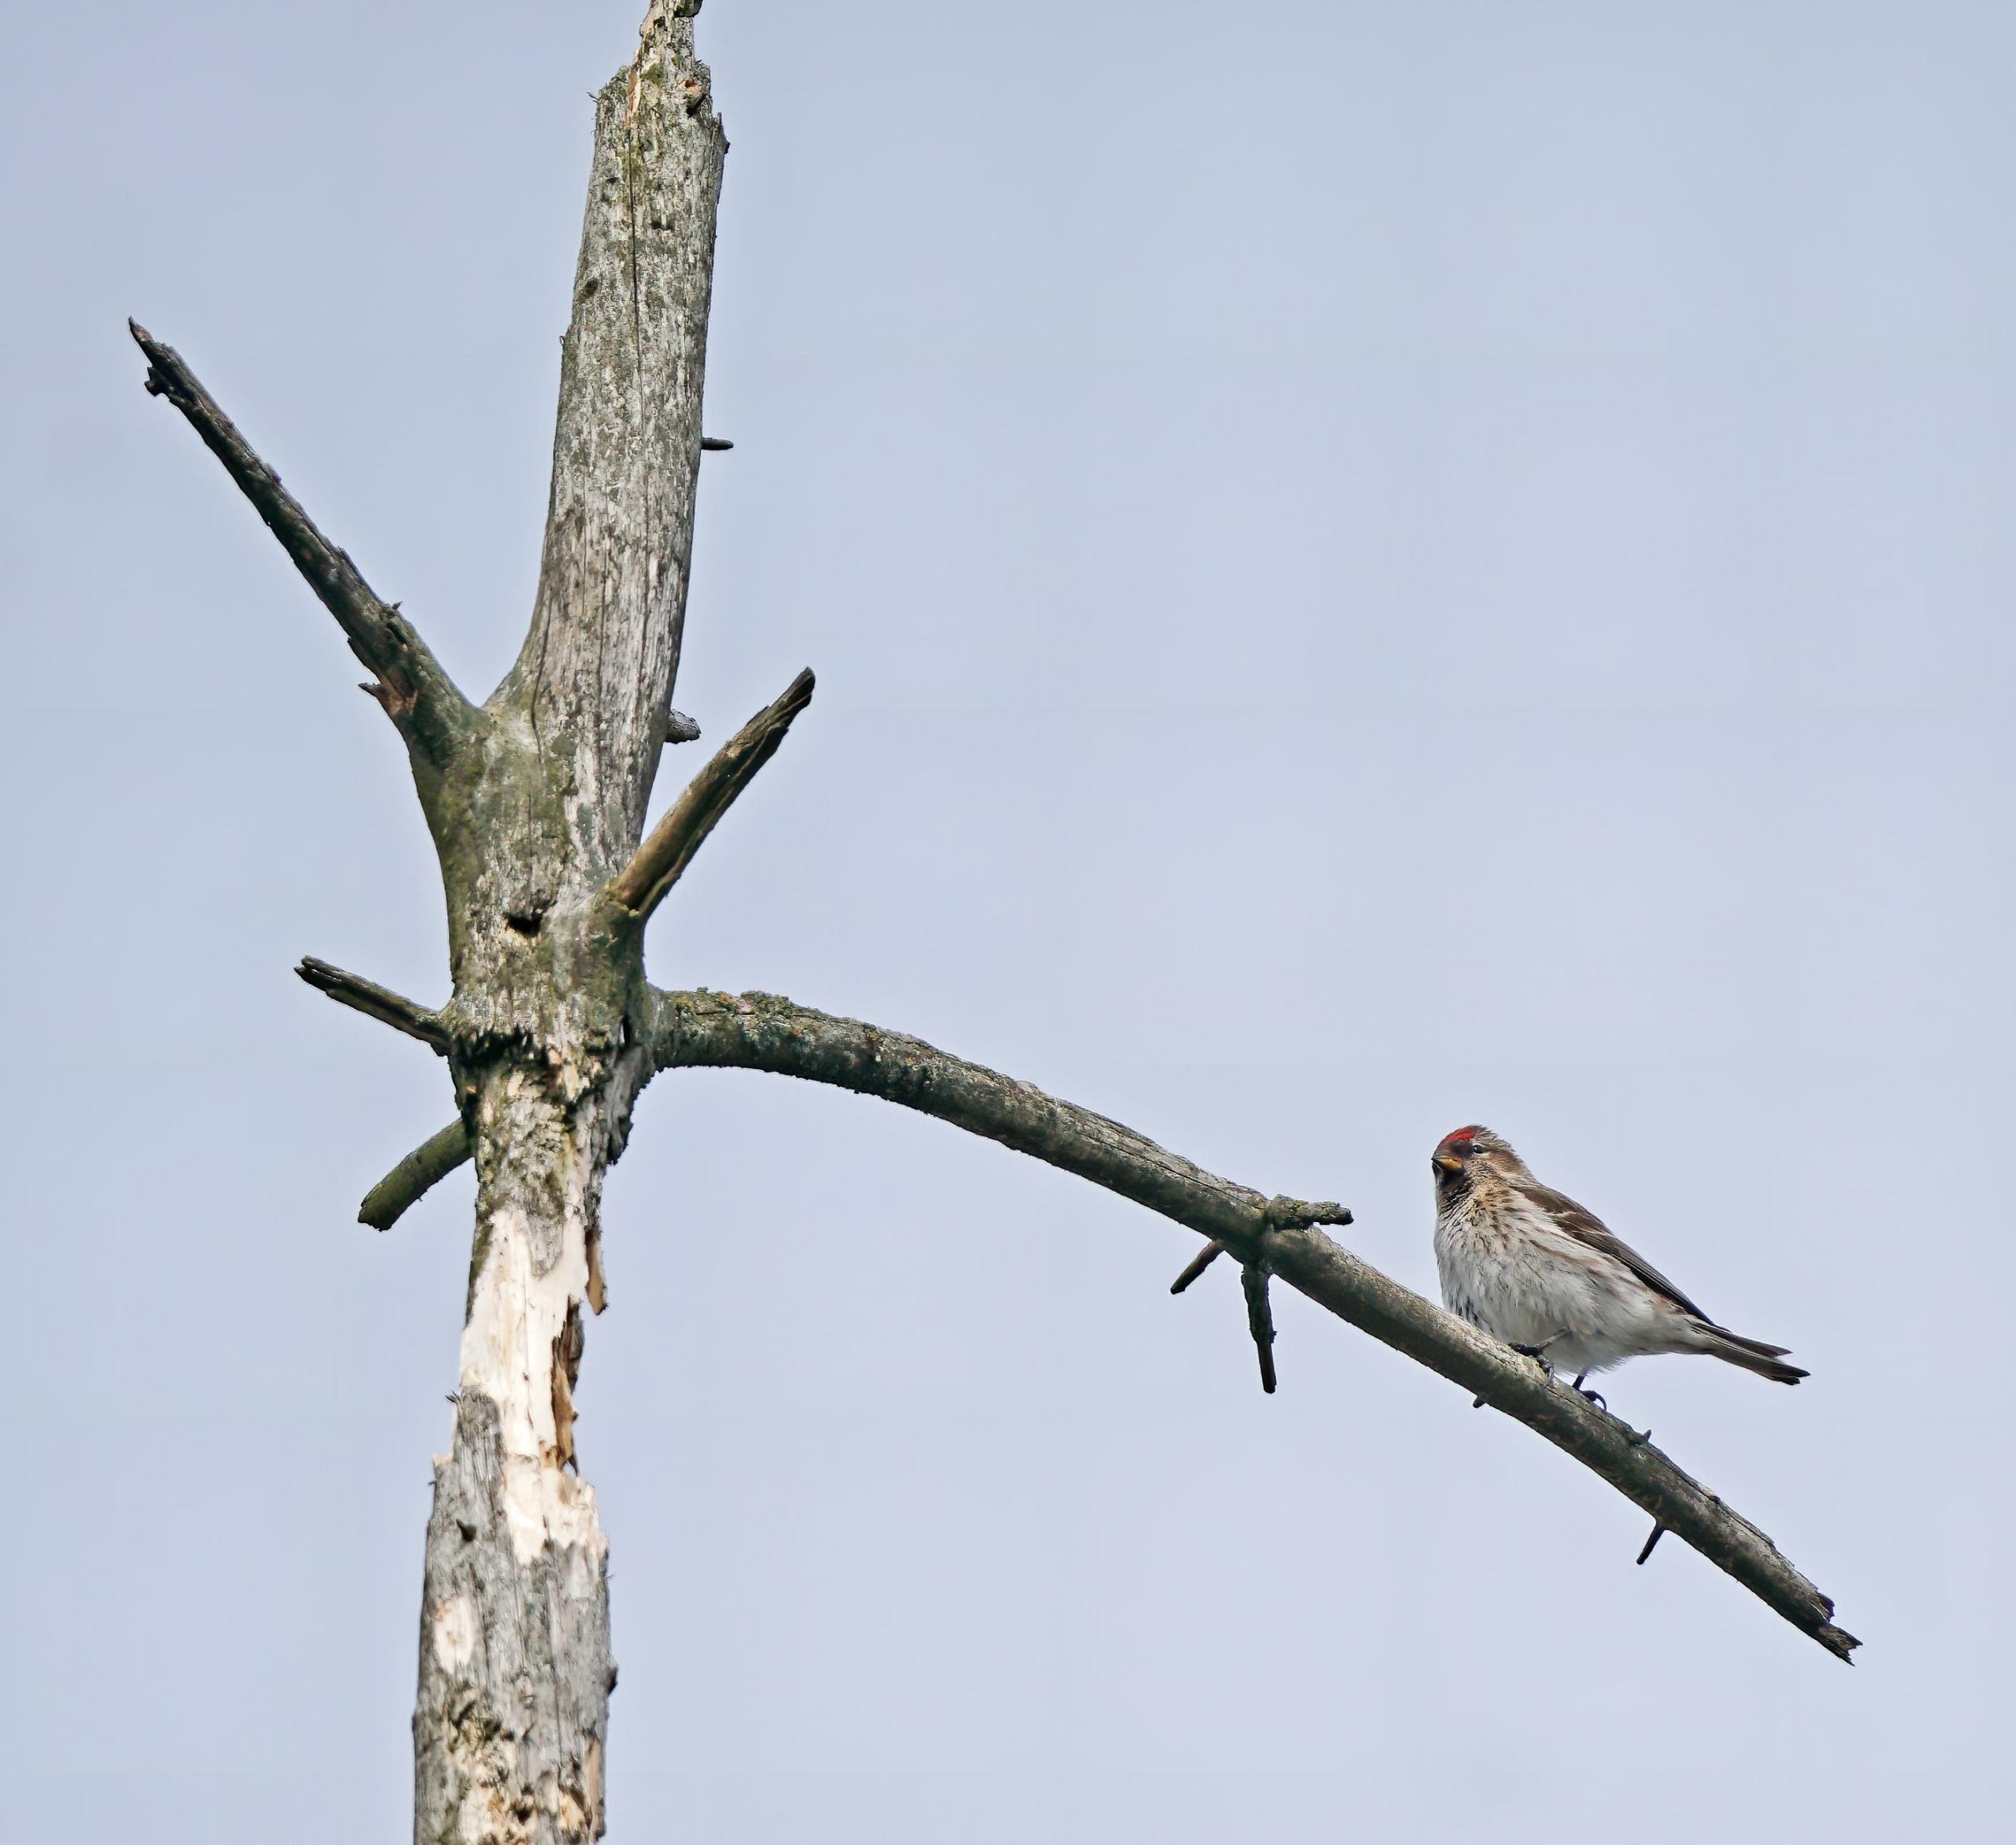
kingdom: Animalia
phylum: Chordata
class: Aves
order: Passeriformes
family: Fringillidae
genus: Acanthis
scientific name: Acanthis flammea
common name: Nordlig gråsisken
